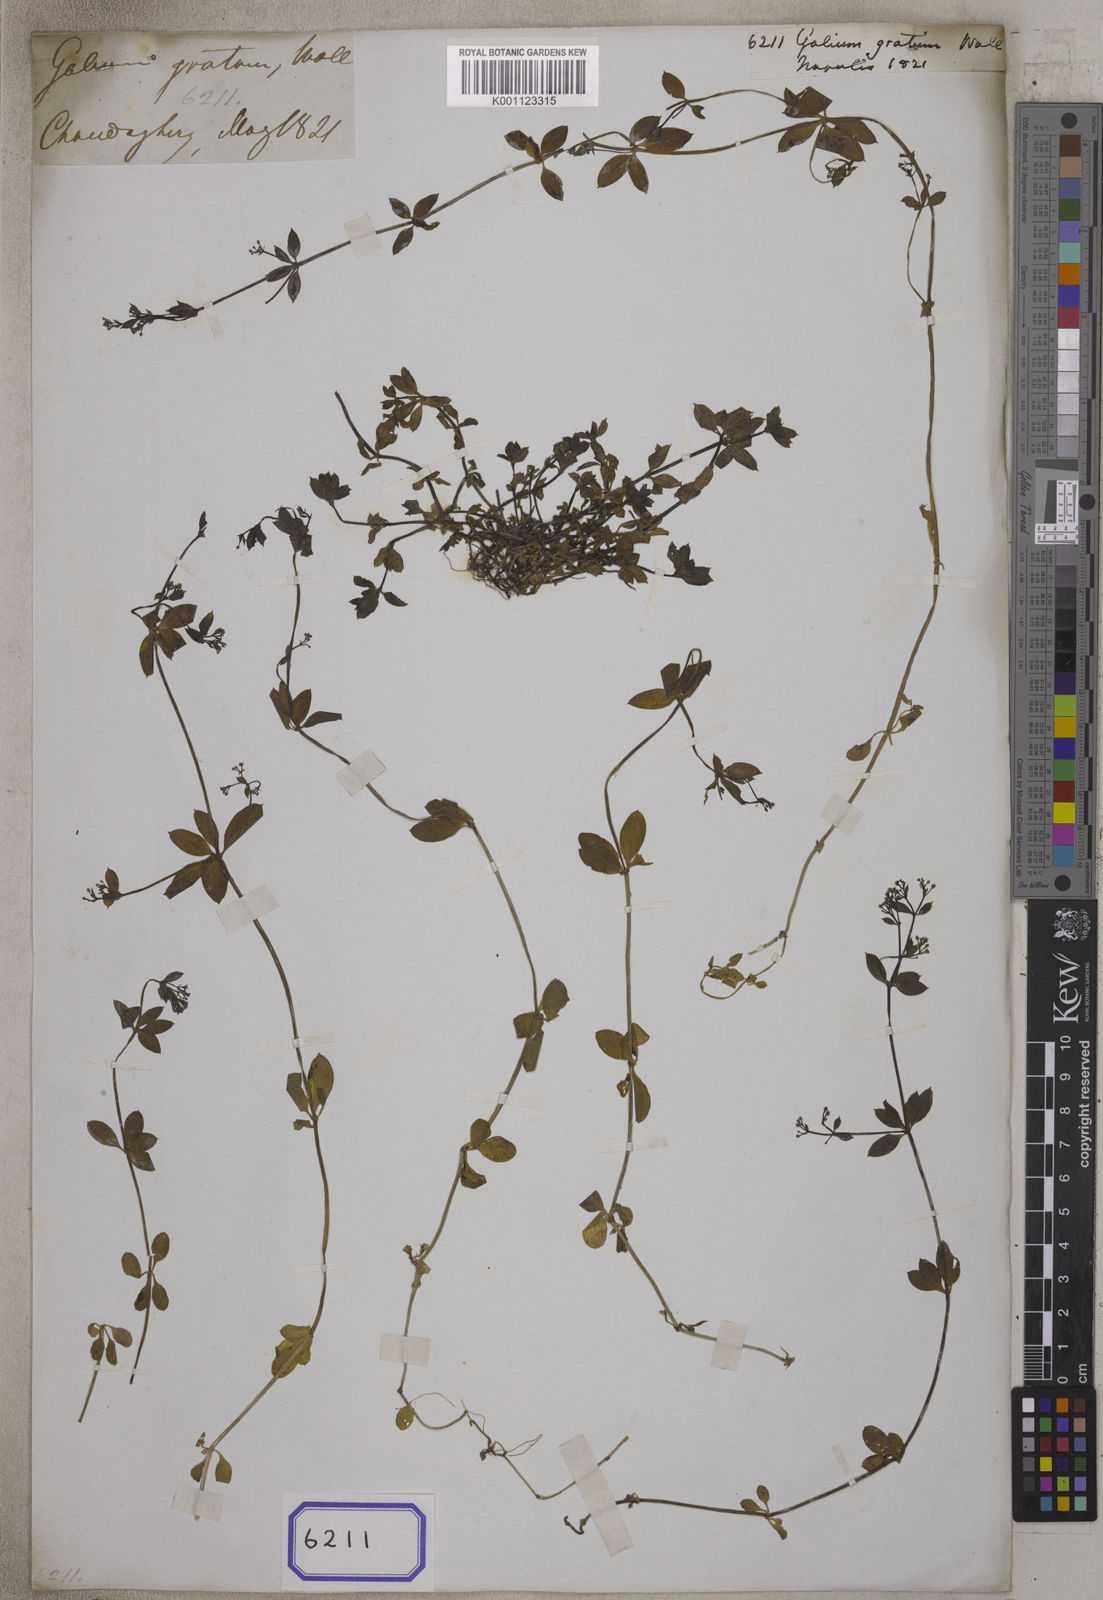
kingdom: Plantae
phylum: Tracheophyta
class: Magnoliopsida
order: Gentianales
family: Rubiaceae
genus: Galium
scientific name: Galium triflorum
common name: Fragrant bedstraw
